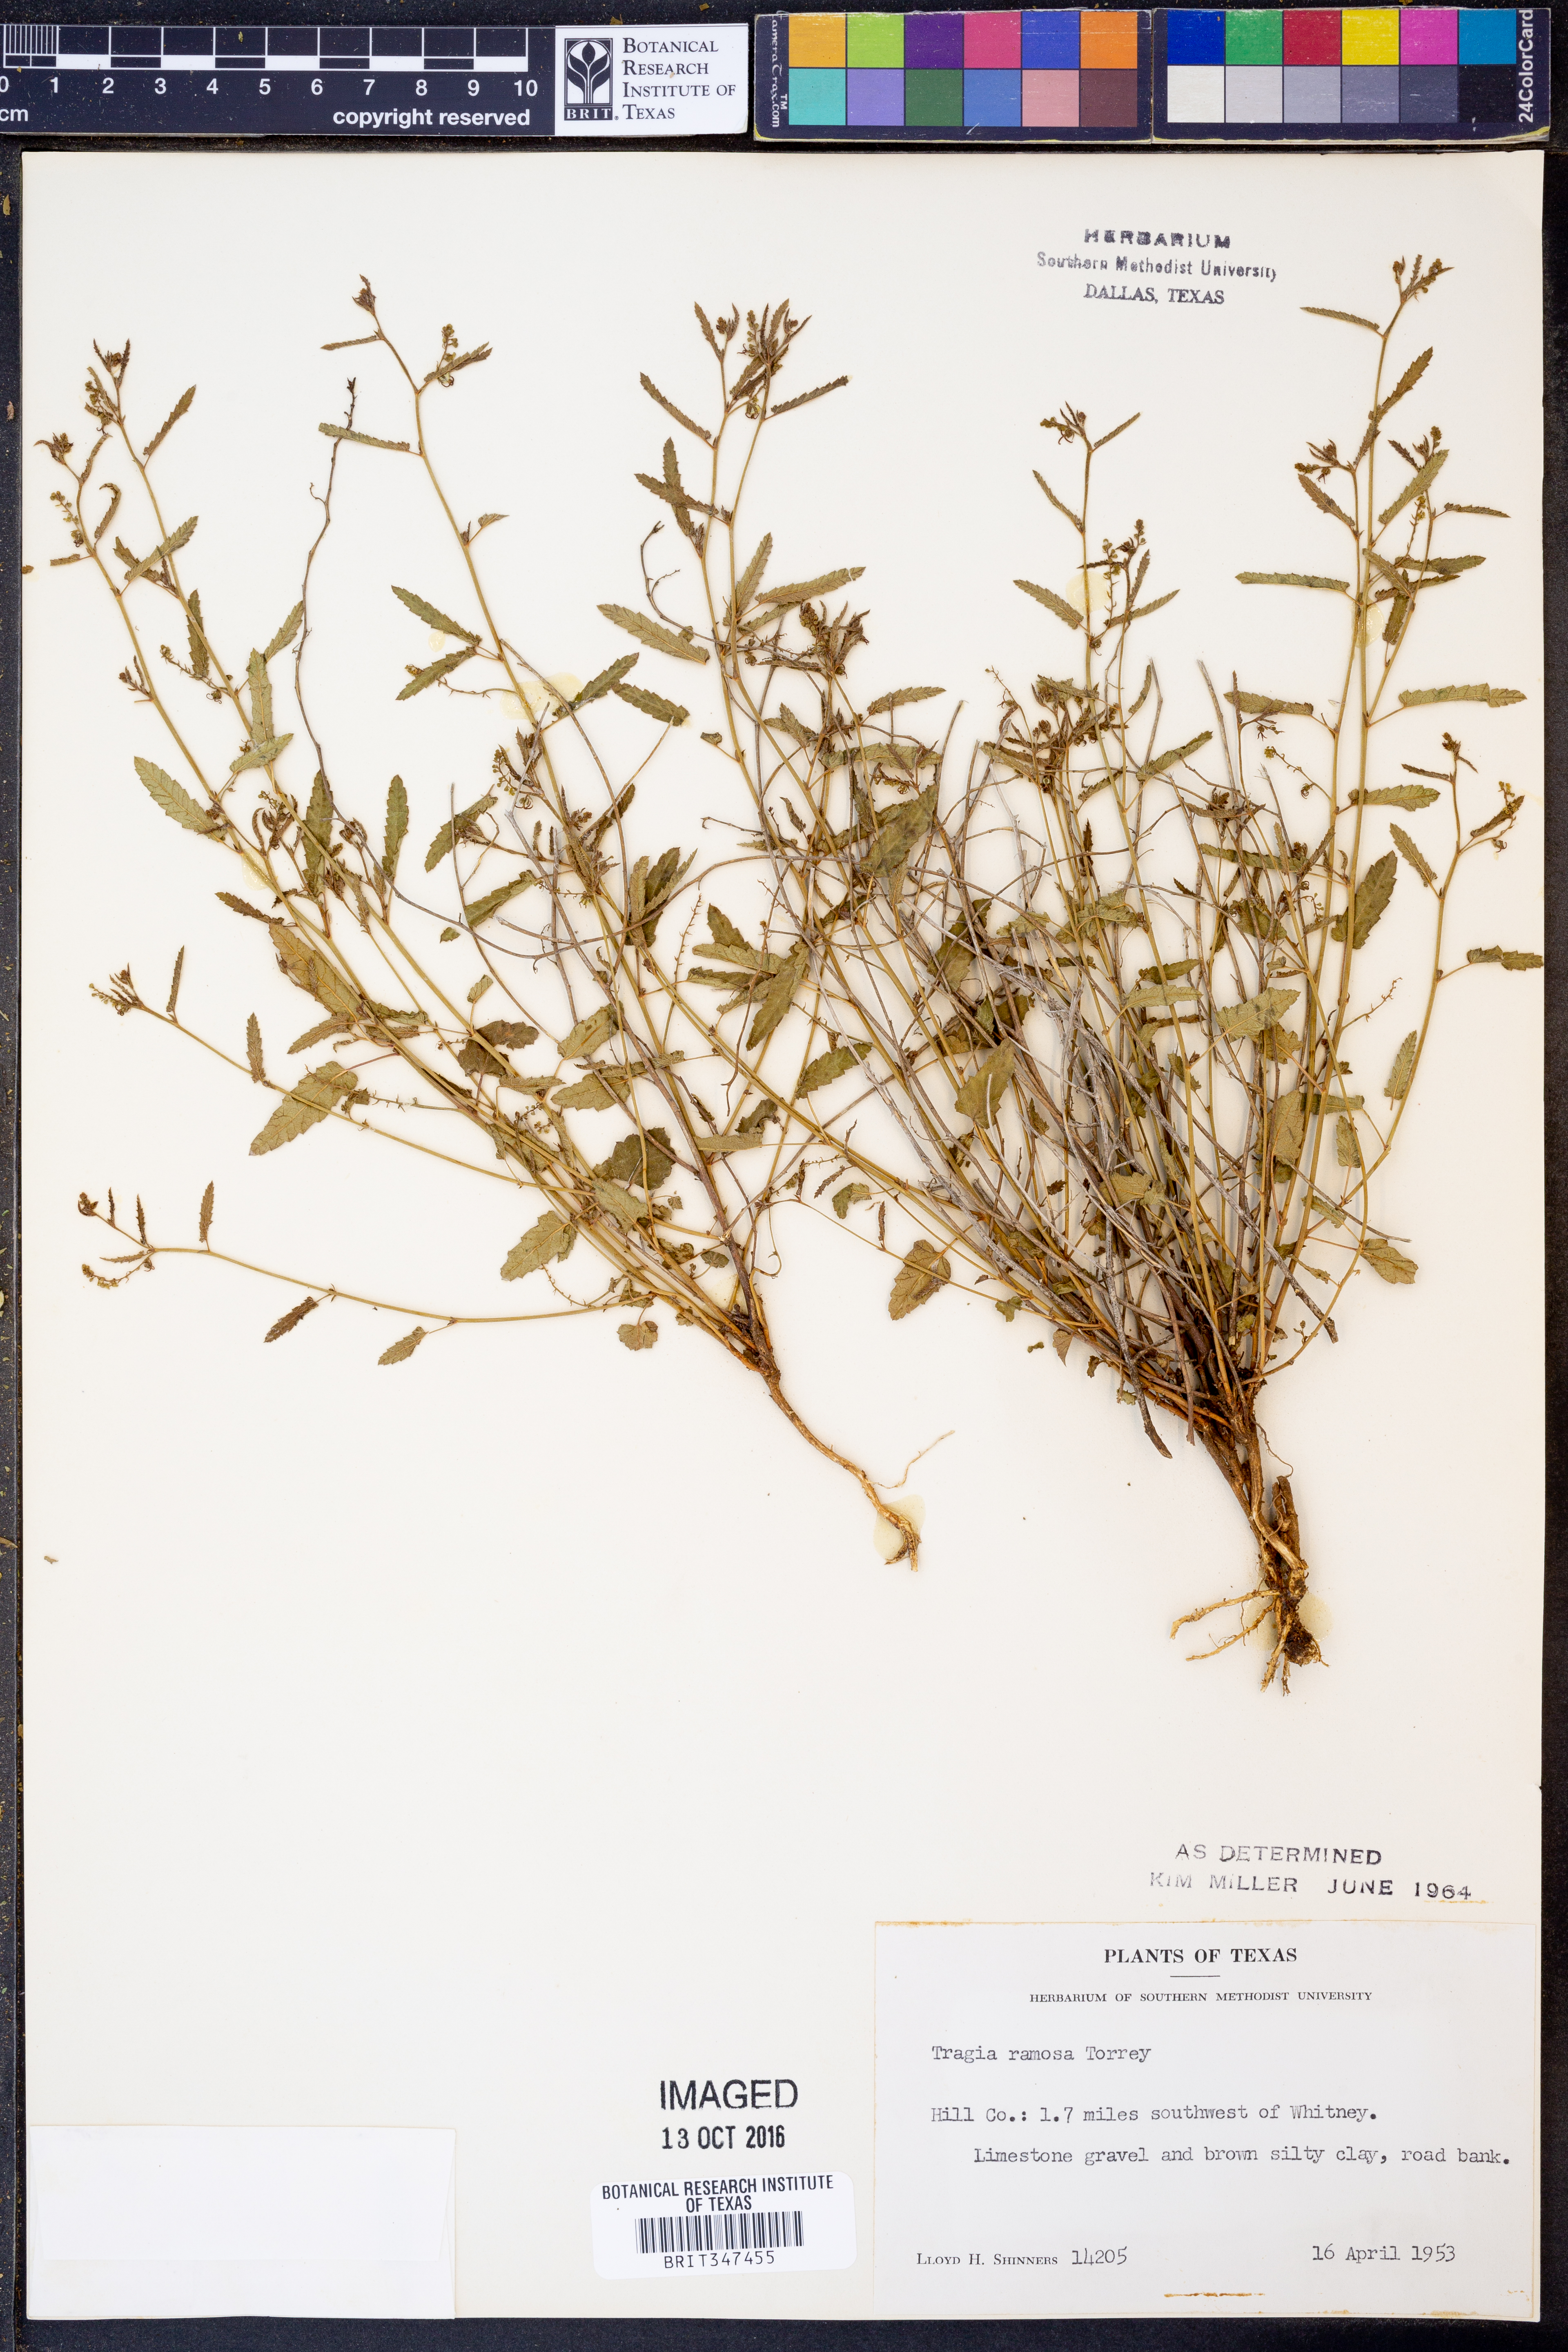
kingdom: Plantae
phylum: Tracheophyta
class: Magnoliopsida
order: Malpighiales
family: Euphorbiaceae
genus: Tragia
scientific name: Tragia ramosa
